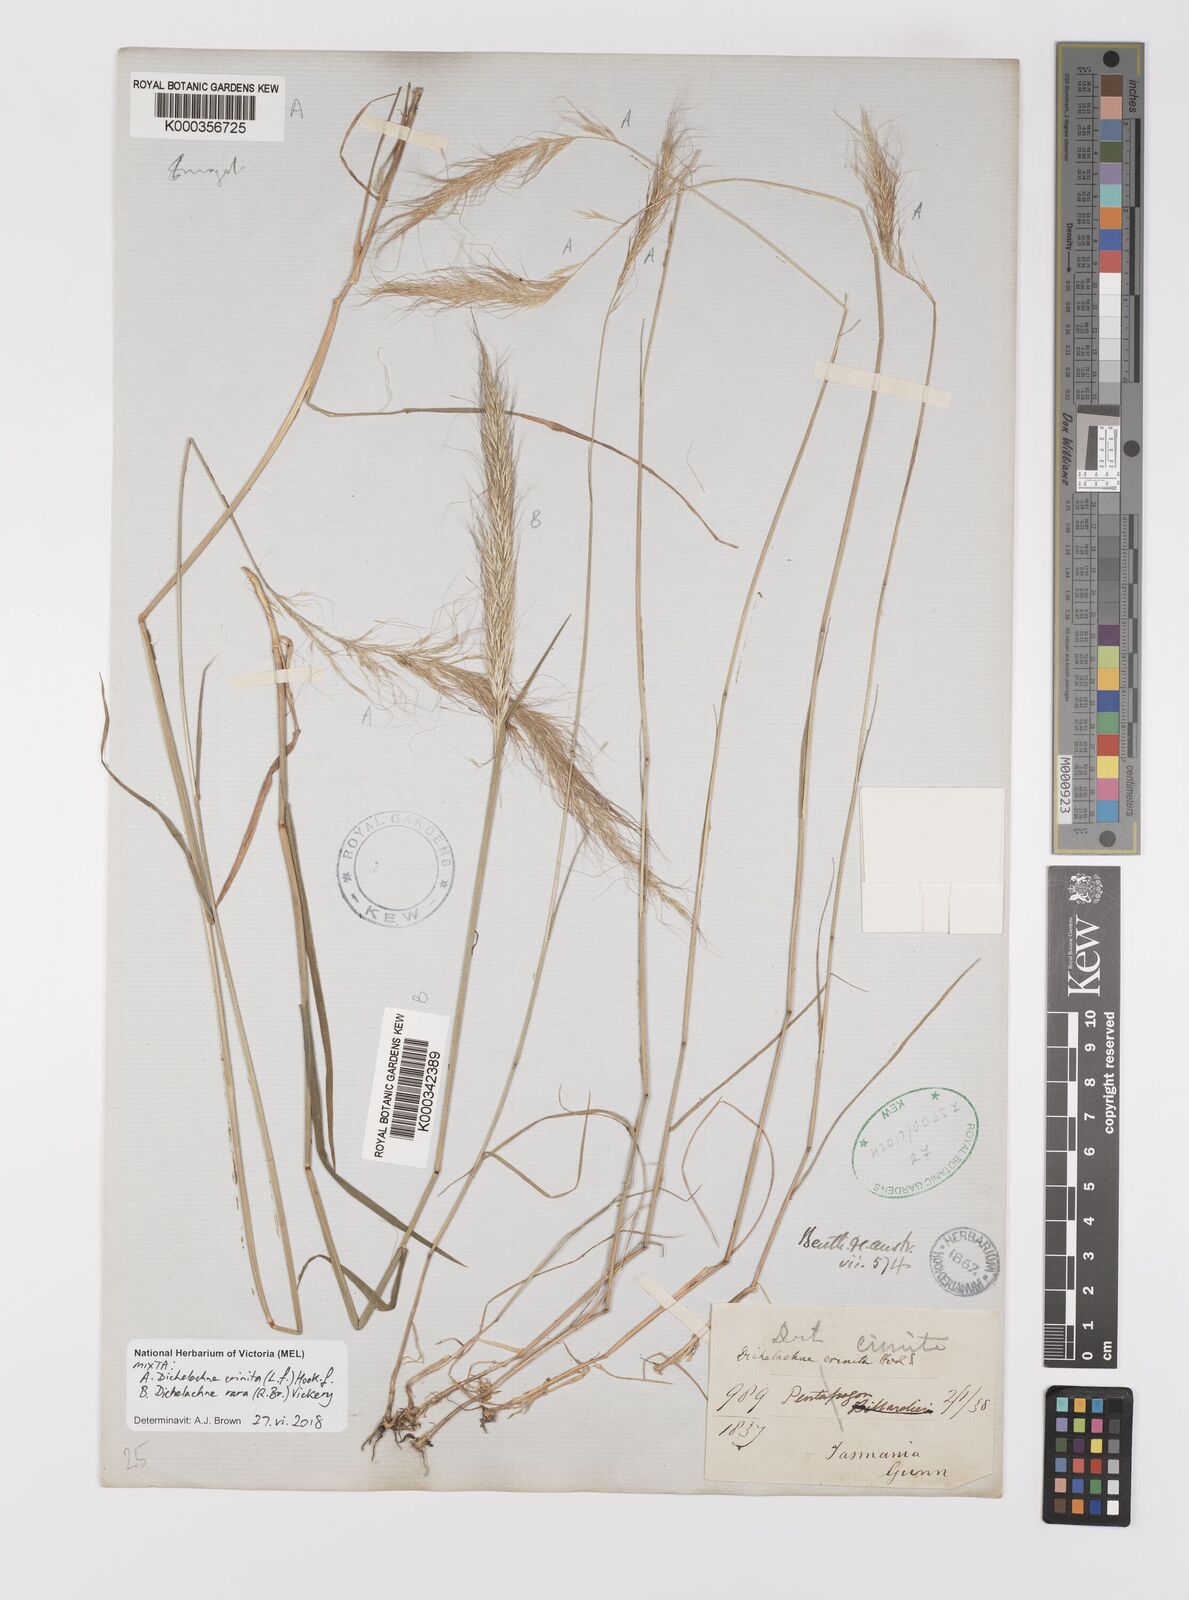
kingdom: Plantae
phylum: Tracheophyta
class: Liliopsida
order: Poales
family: Poaceae
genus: Dichelachne
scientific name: Dichelachne rara
